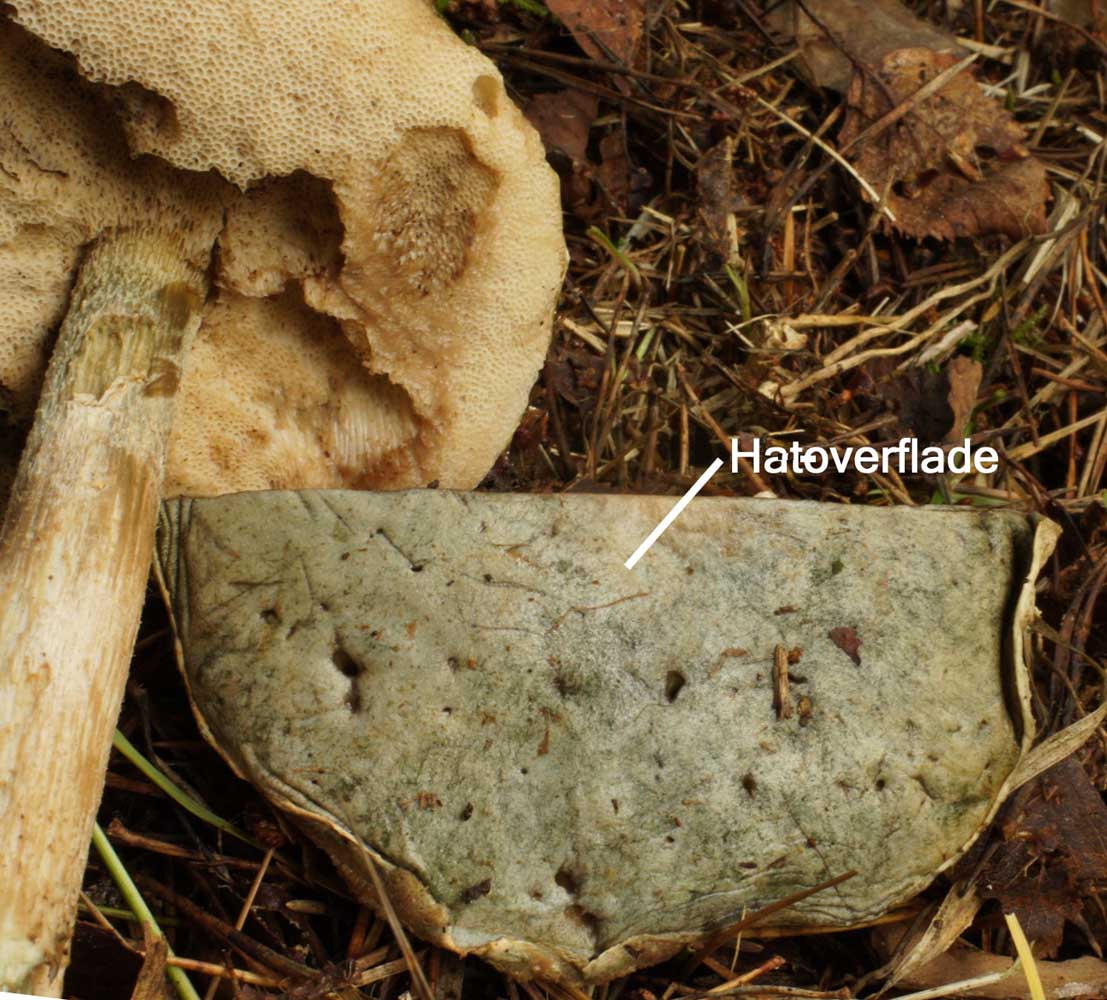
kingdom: Fungi
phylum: Basidiomycota
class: Agaricomycetes
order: Boletales
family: Boletaceae
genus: Leccinum
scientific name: Leccinum scabrum
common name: hvid skælrørhat
